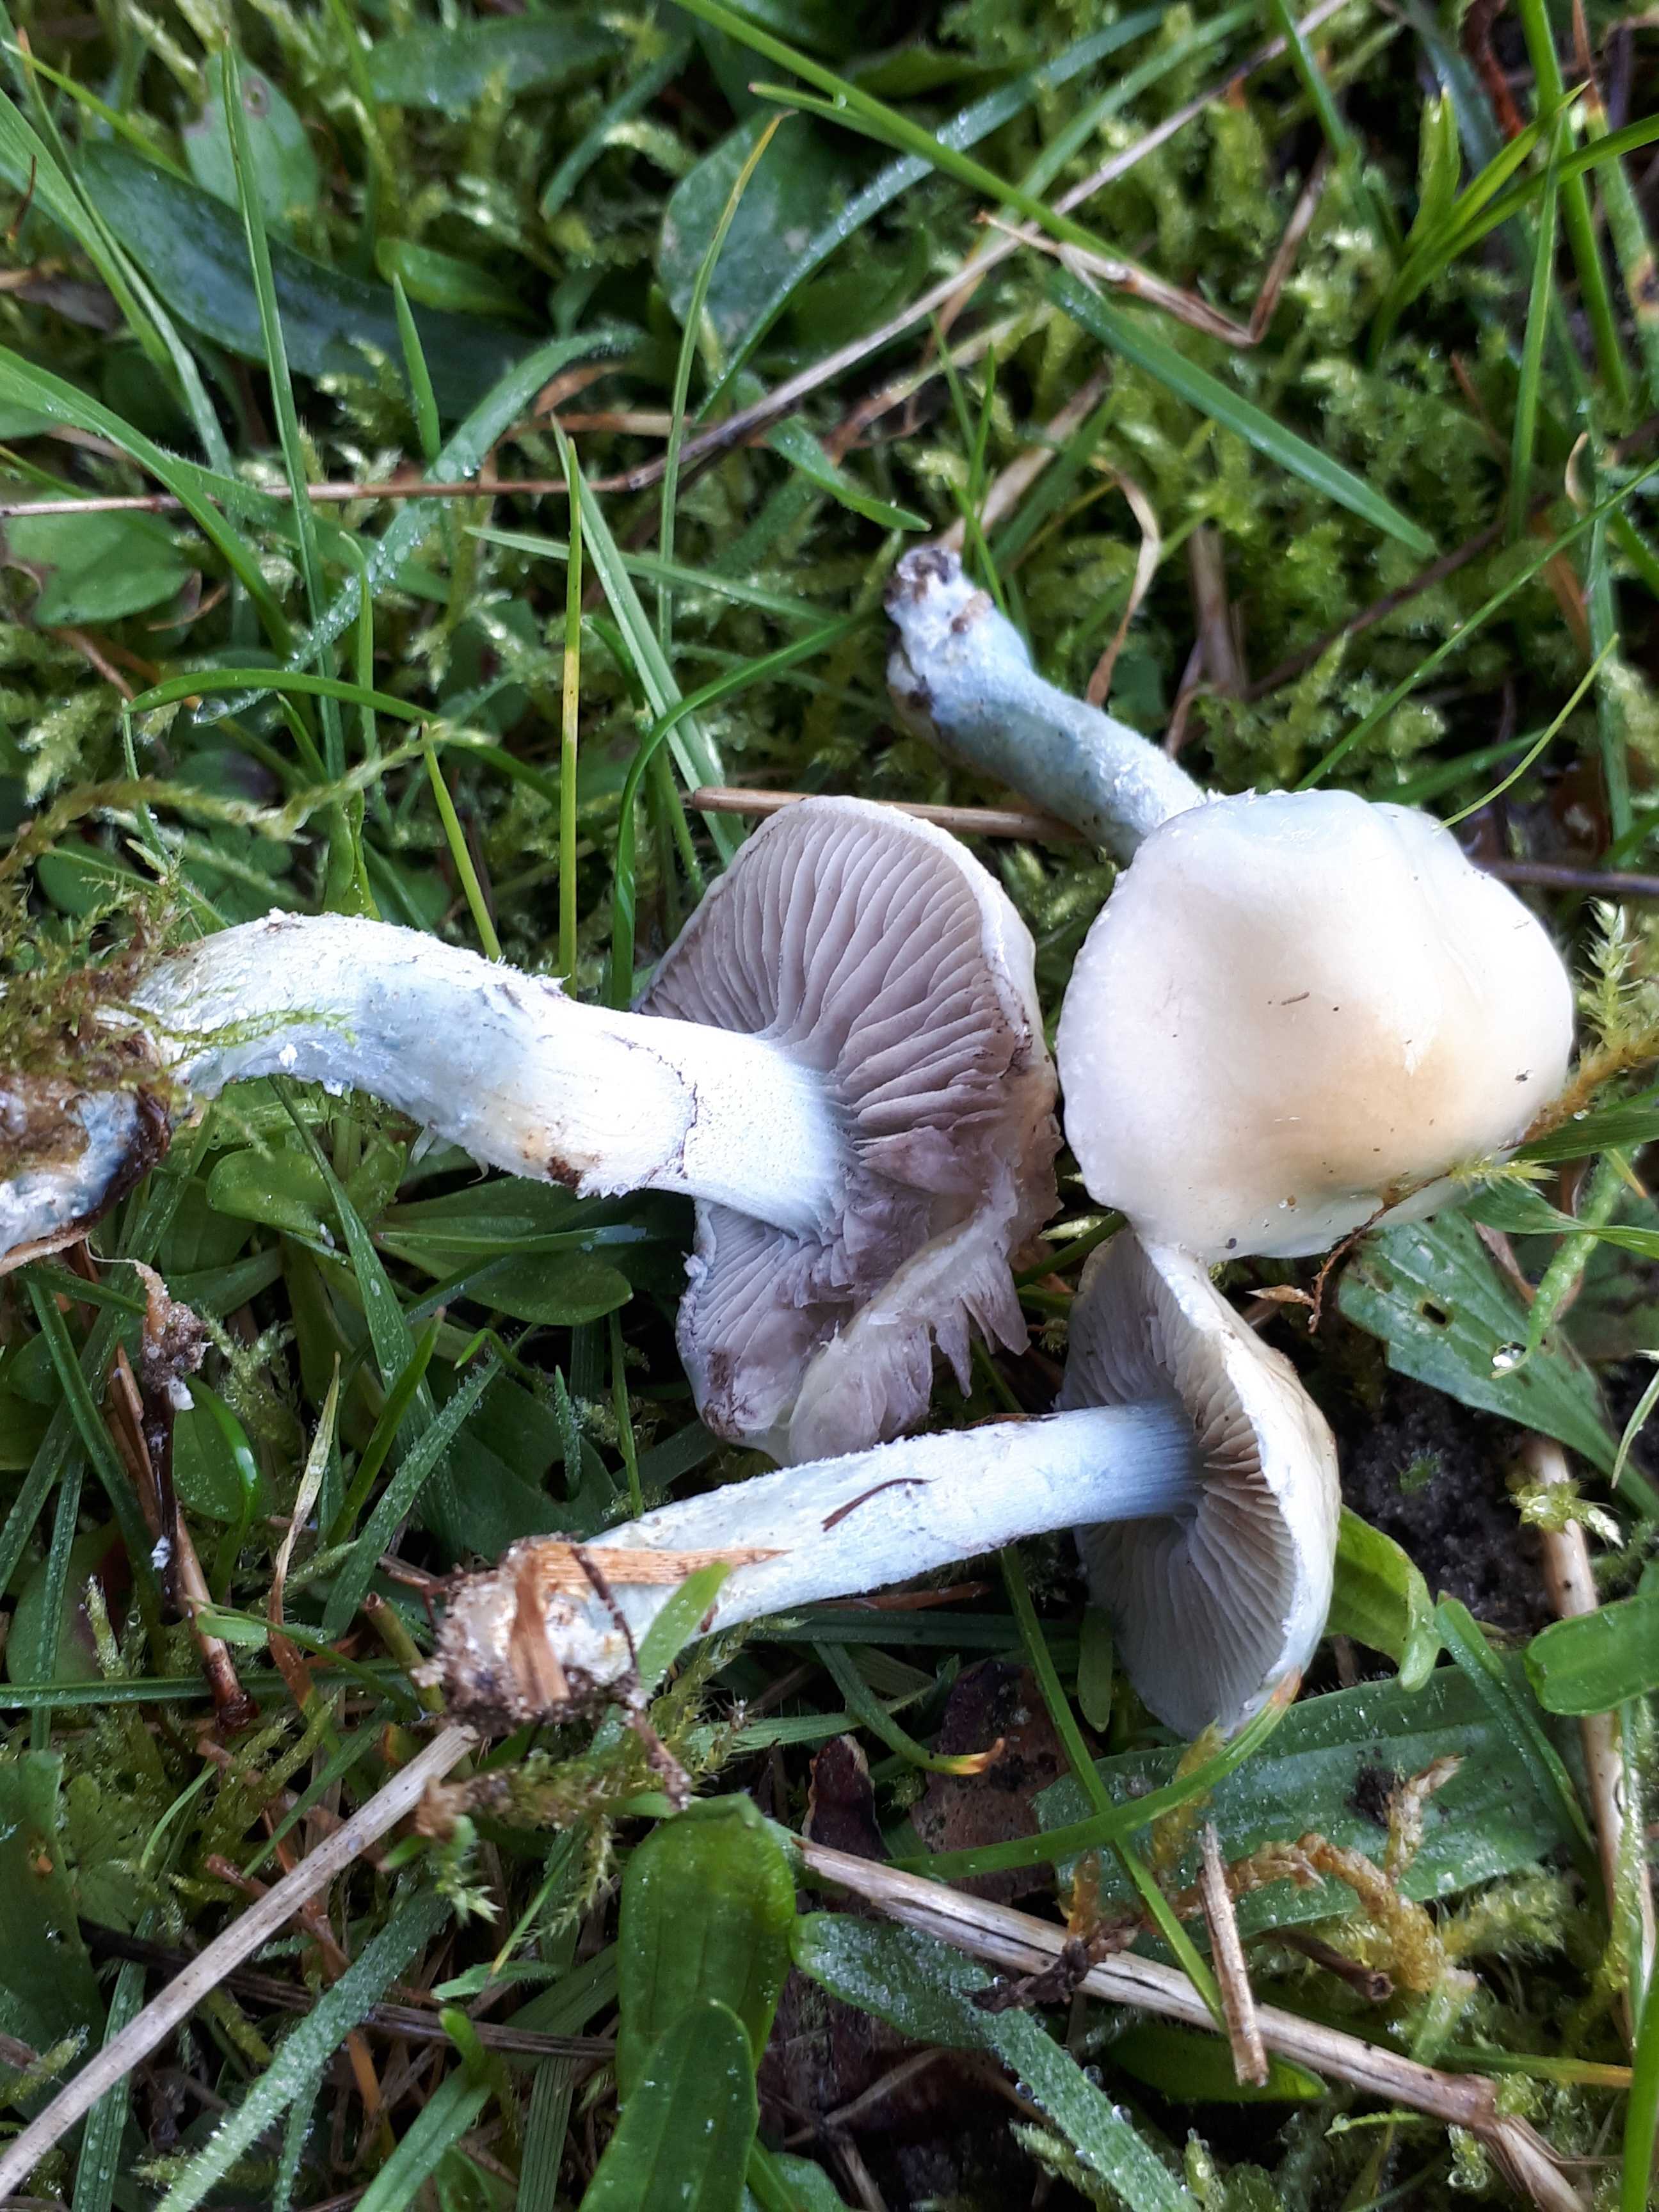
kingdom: Fungi
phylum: Basidiomycota
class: Agaricomycetes
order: Agaricales
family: Strophariaceae
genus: Stropharia
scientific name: Stropharia cyanea
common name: blågrøn bredblad
